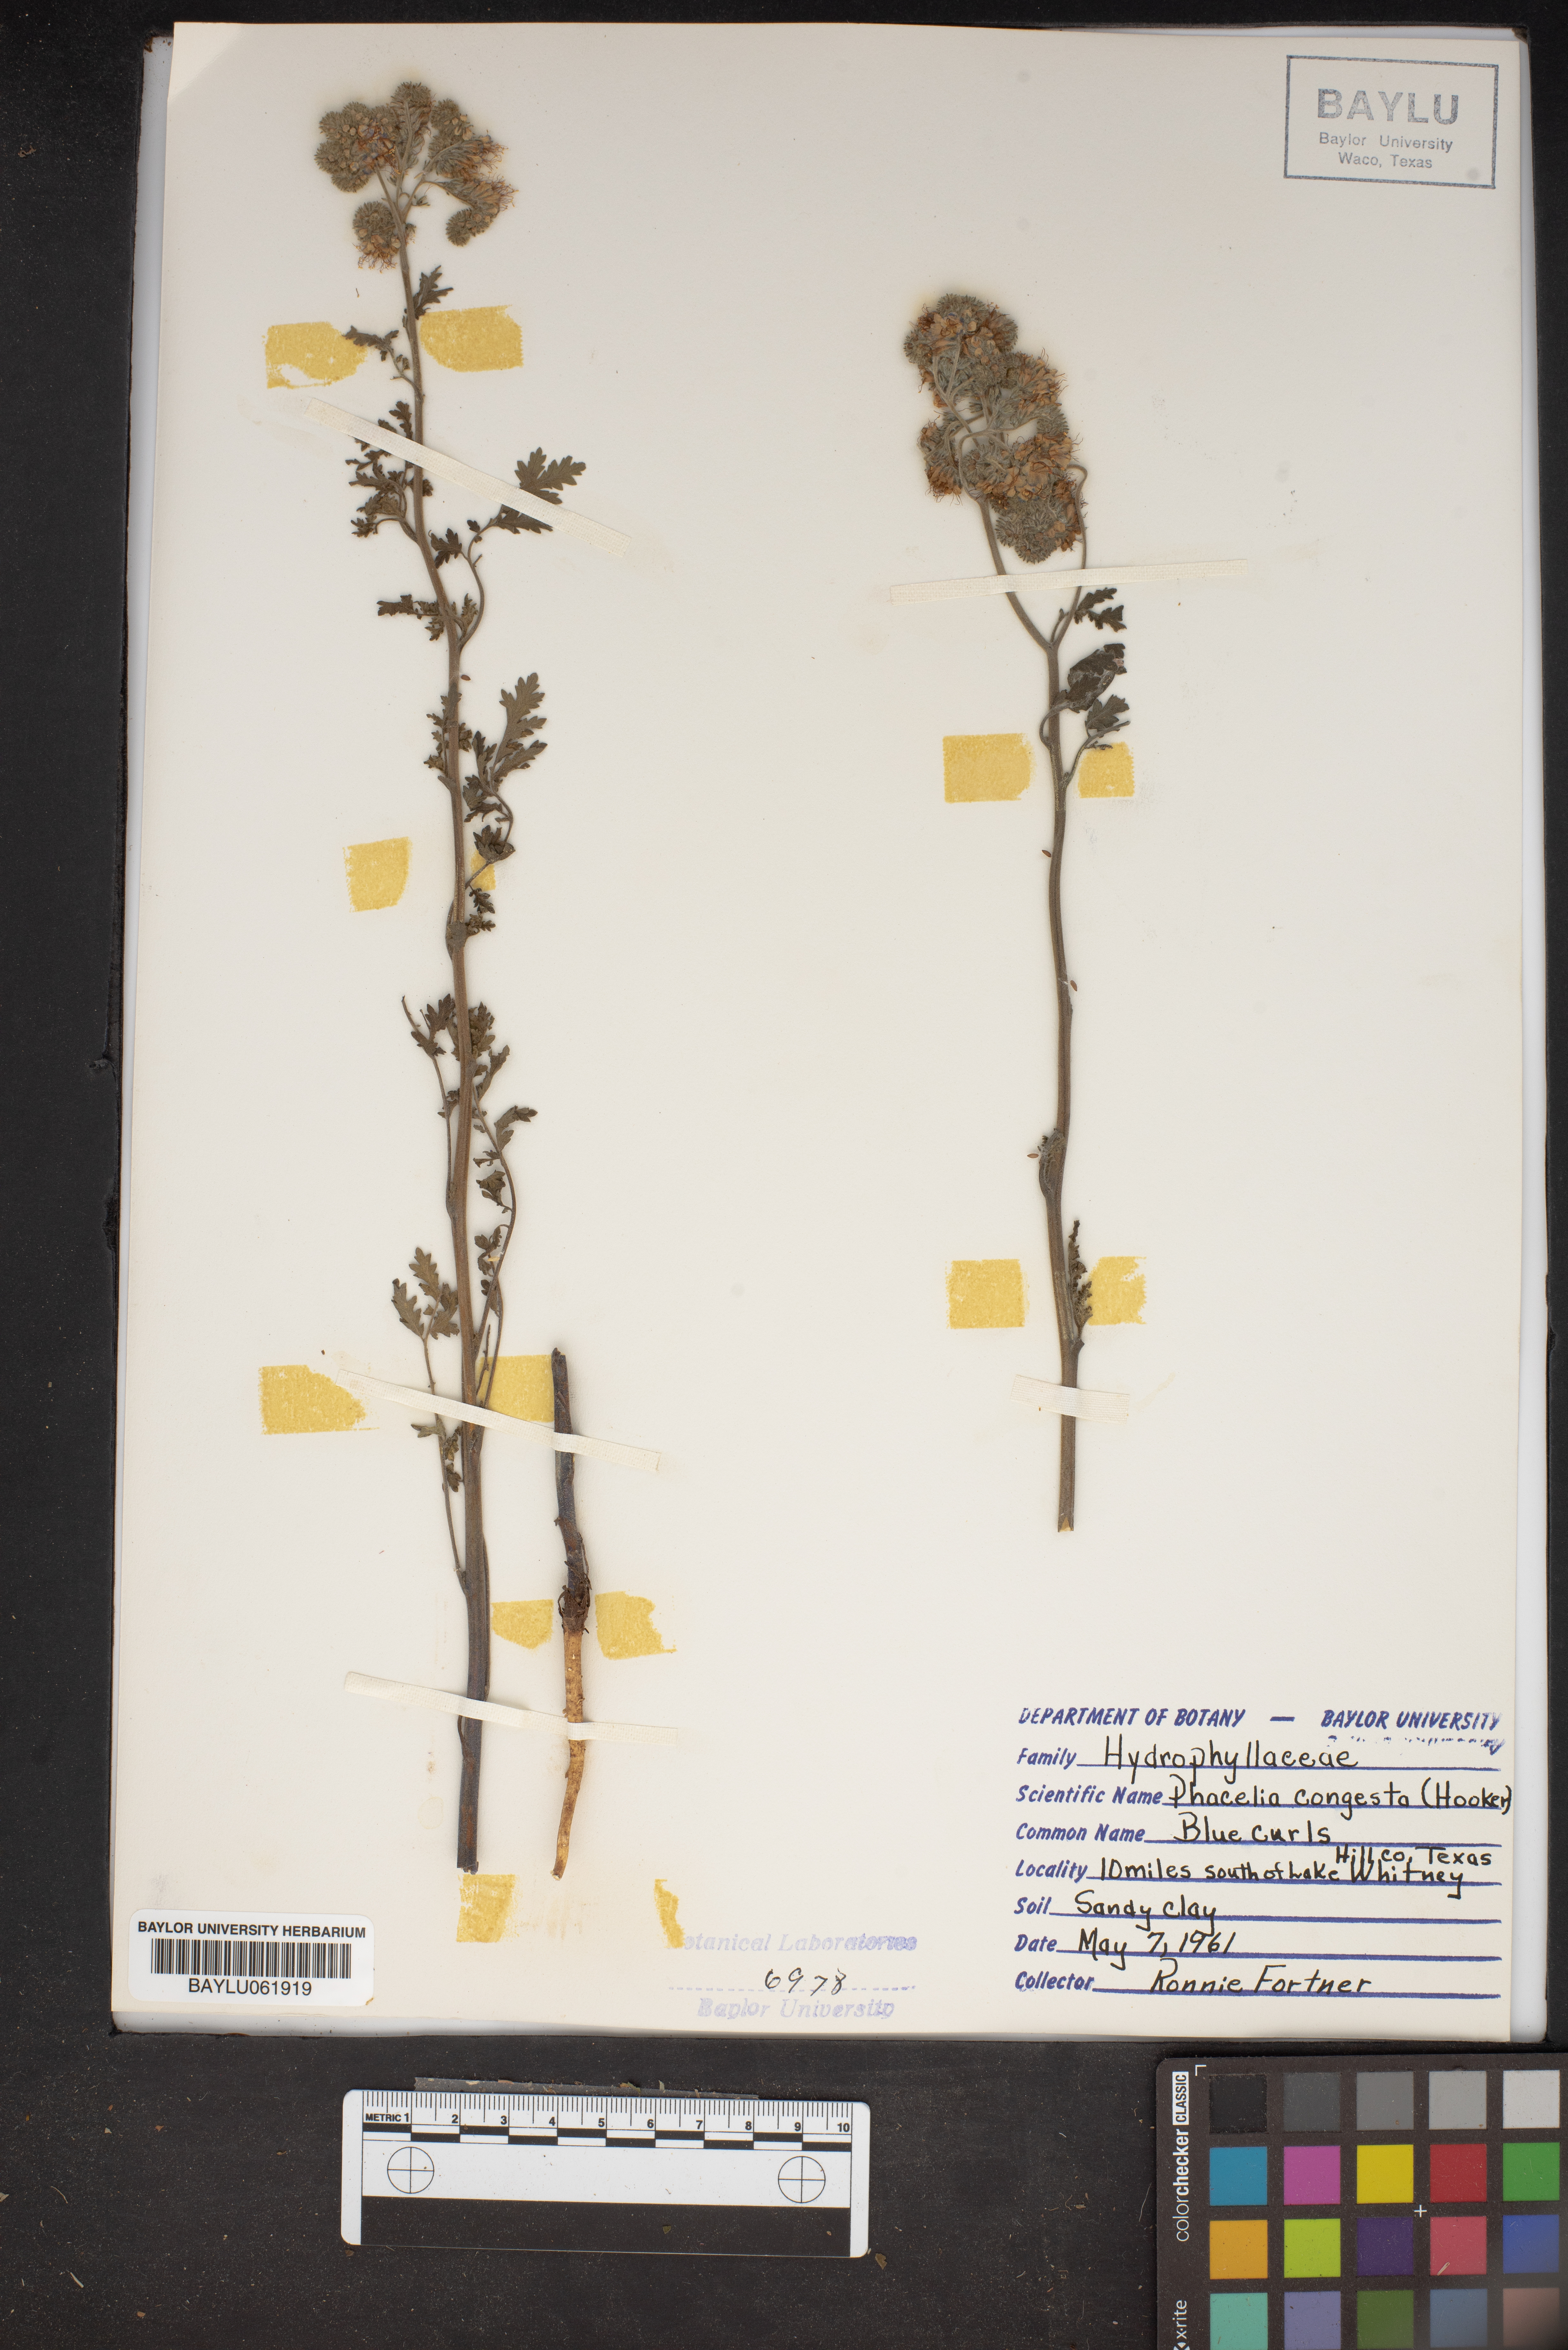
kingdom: Plantae
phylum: Tracheophyta
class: Magnoliopsida
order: Boraginales
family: Hydrophyllaceae
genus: Phacelia
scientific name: Phacelia congesta
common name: Blue curls
